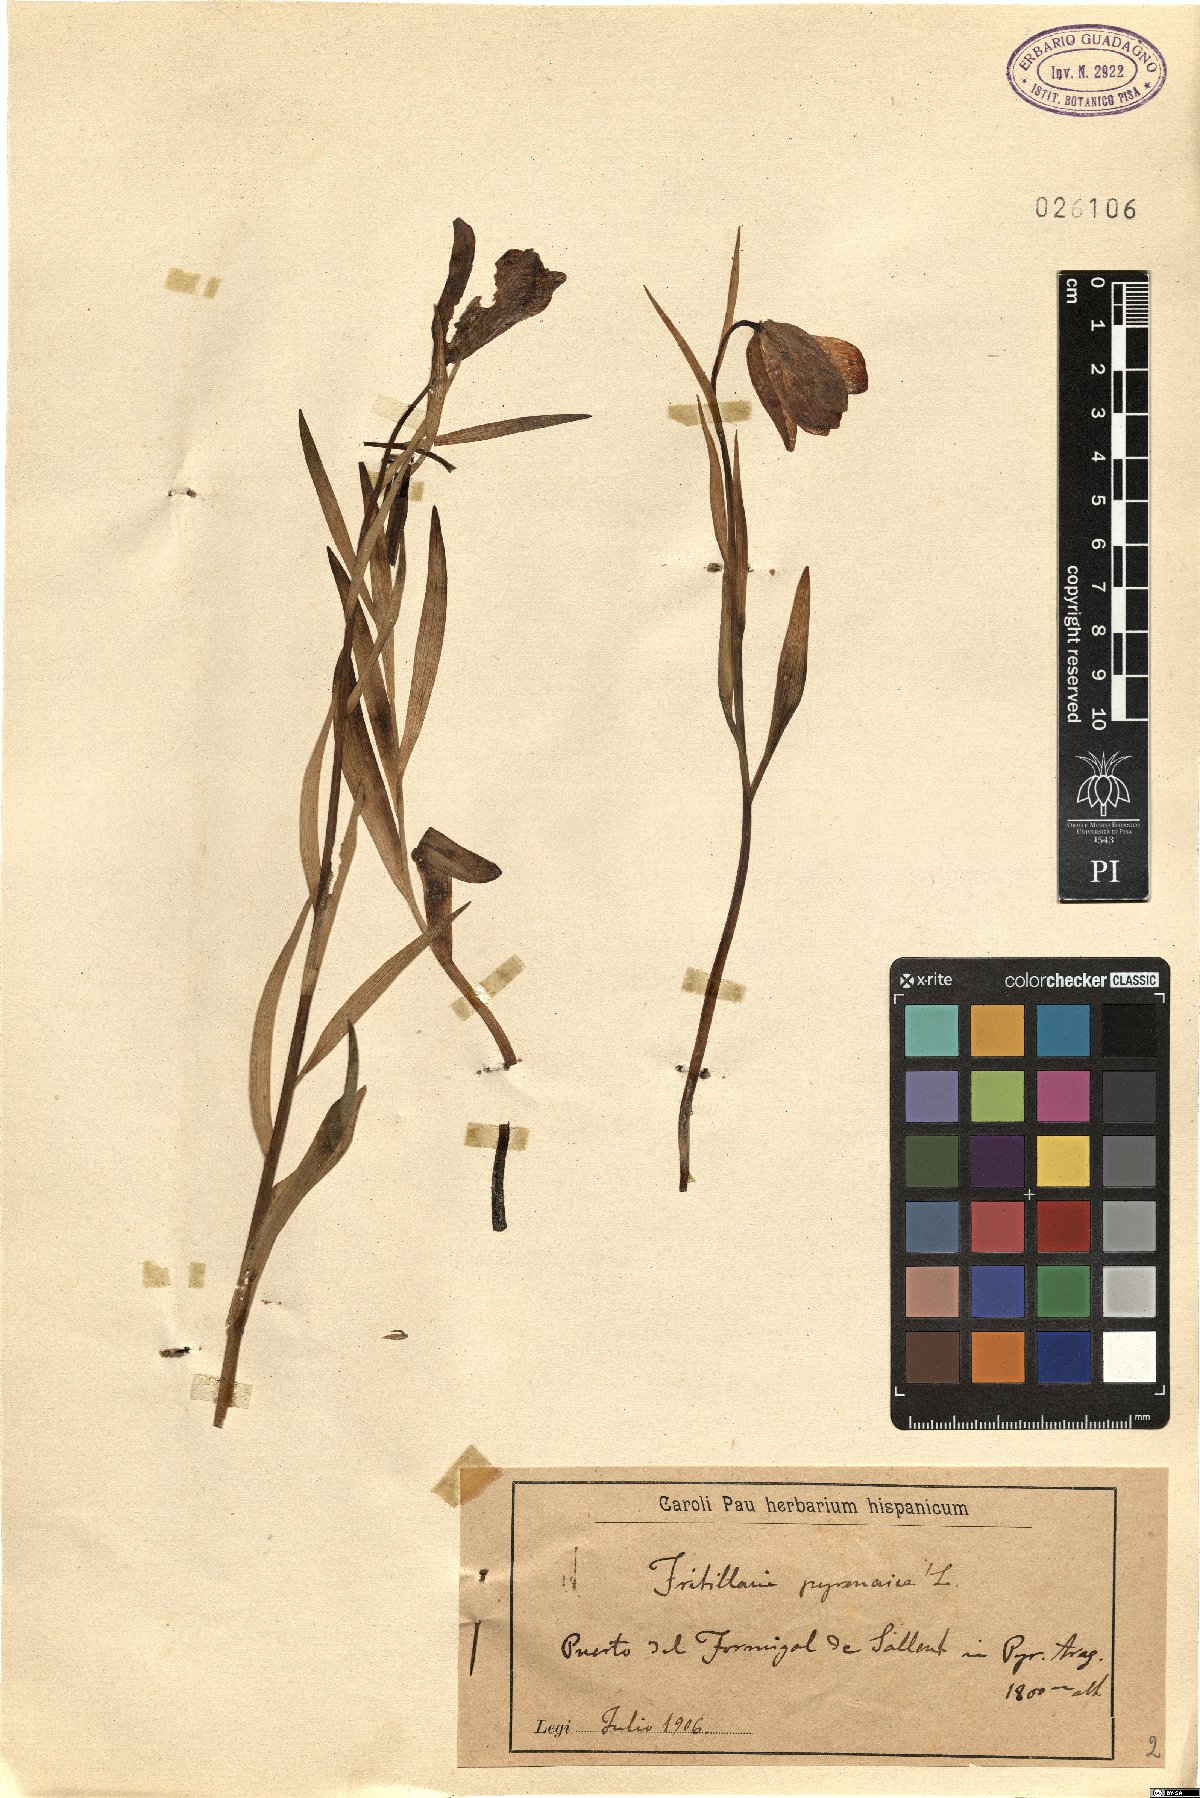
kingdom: Plantae
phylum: Tracheophyta
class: Liliopsida
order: Liliales
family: Liliaceae
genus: Fritillaria
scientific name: Fritillaria pyrenaica
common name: Pyrenean snake's-head
